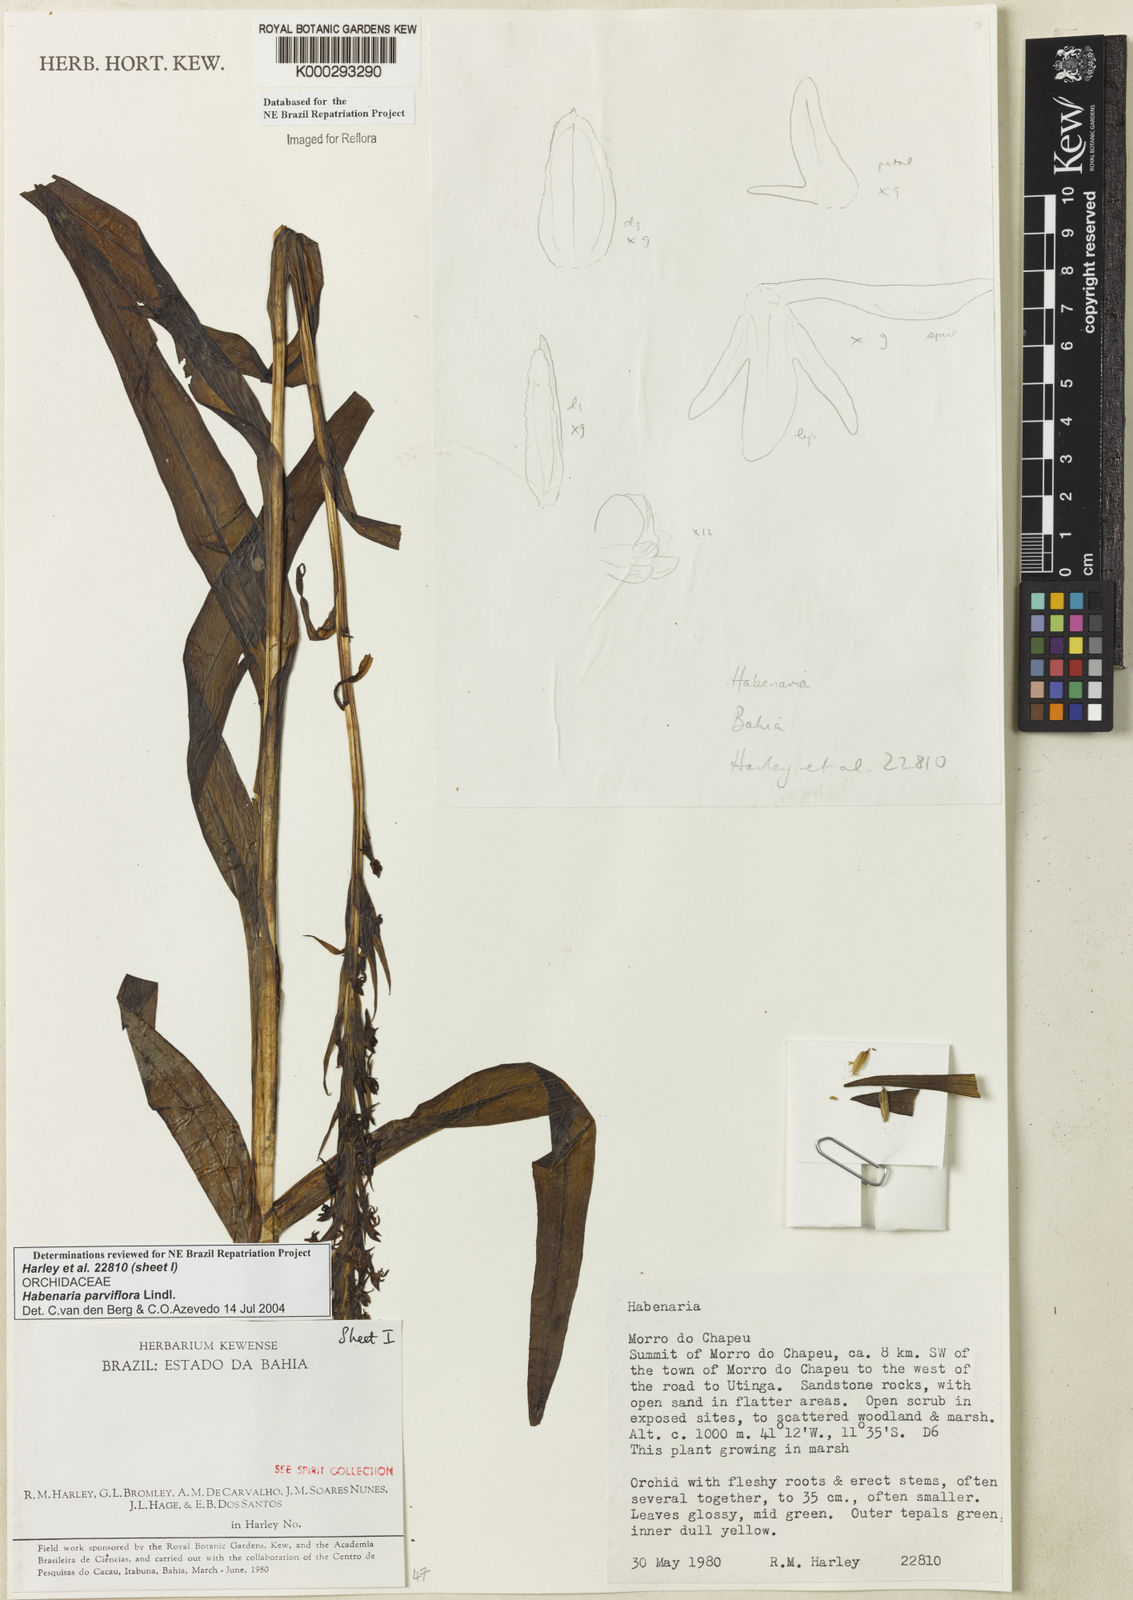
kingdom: Plantae
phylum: Tracheophyta
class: Liliopsida
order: Asparagales
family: Orchidaceae
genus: Habenaria
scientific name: Habenaria parviflora
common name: Small flowered habenaria
